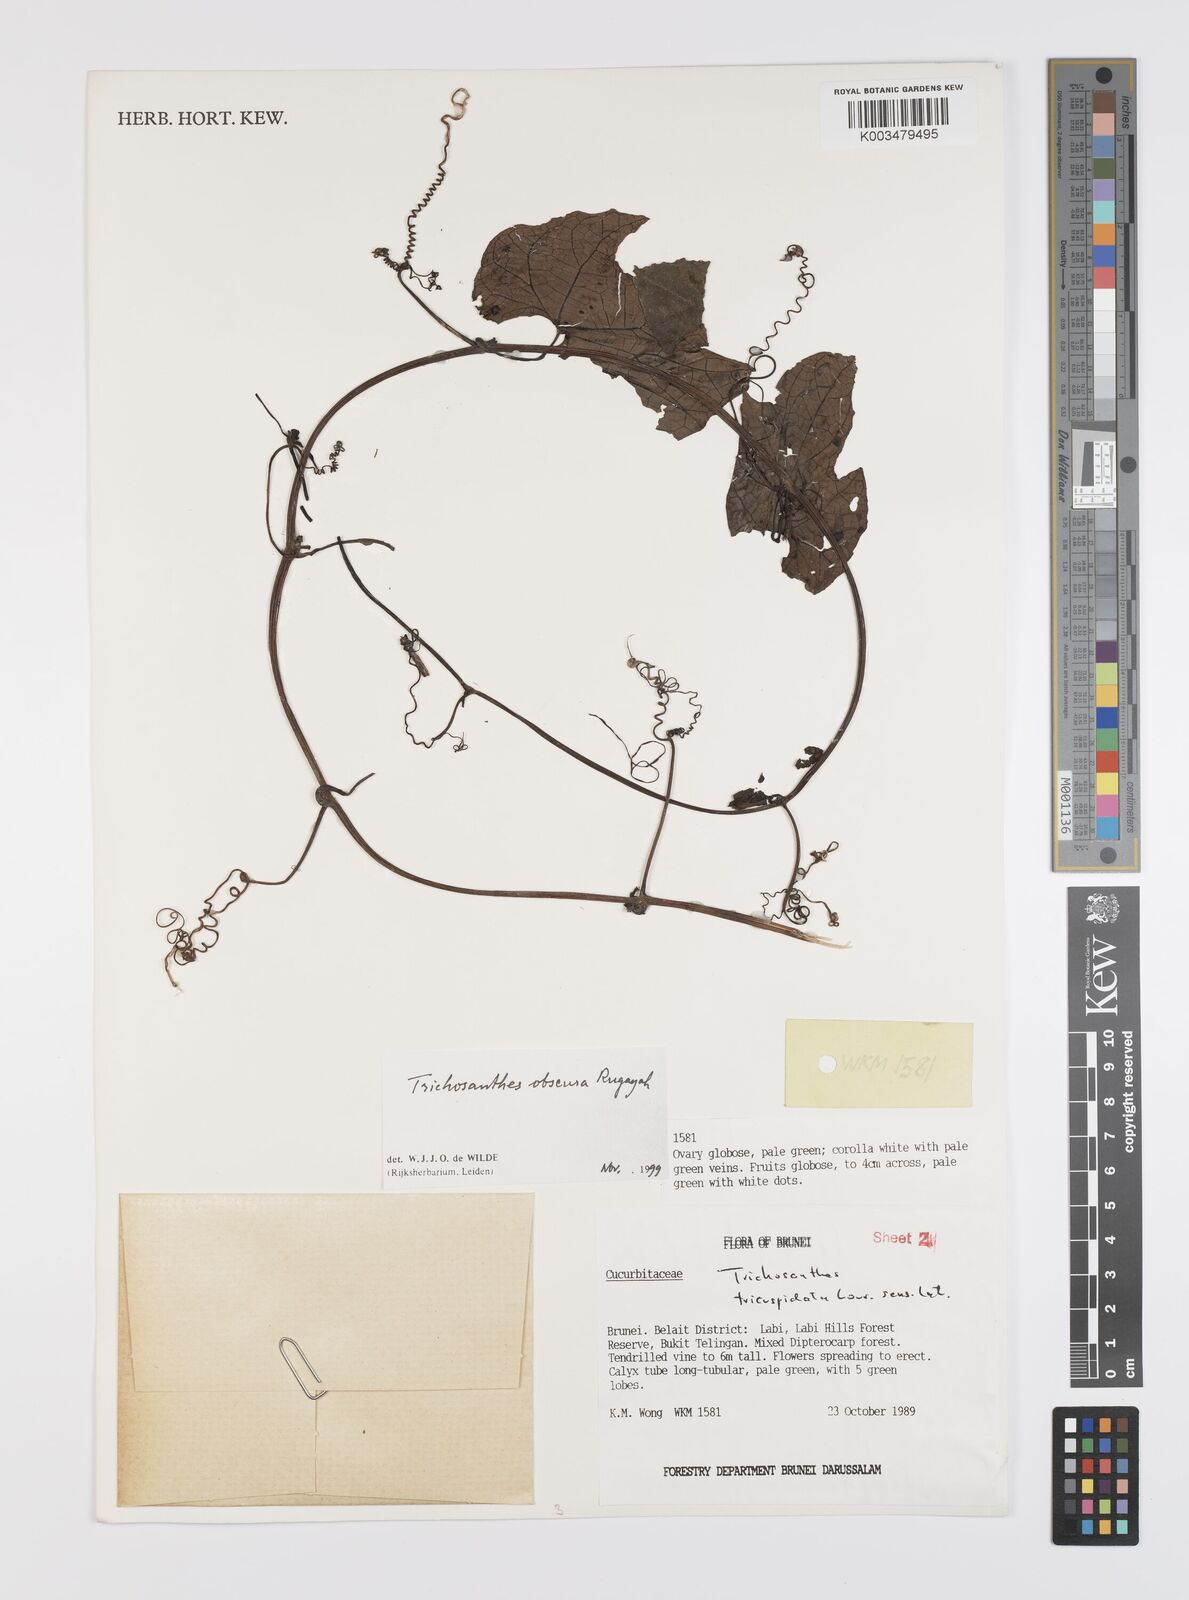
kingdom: Plantae
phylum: Tracheophyta
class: Magnoliopsida
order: Cucurbitales
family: Cucurbitaceae
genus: Trichosanthes
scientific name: Trichosanthes obscura
